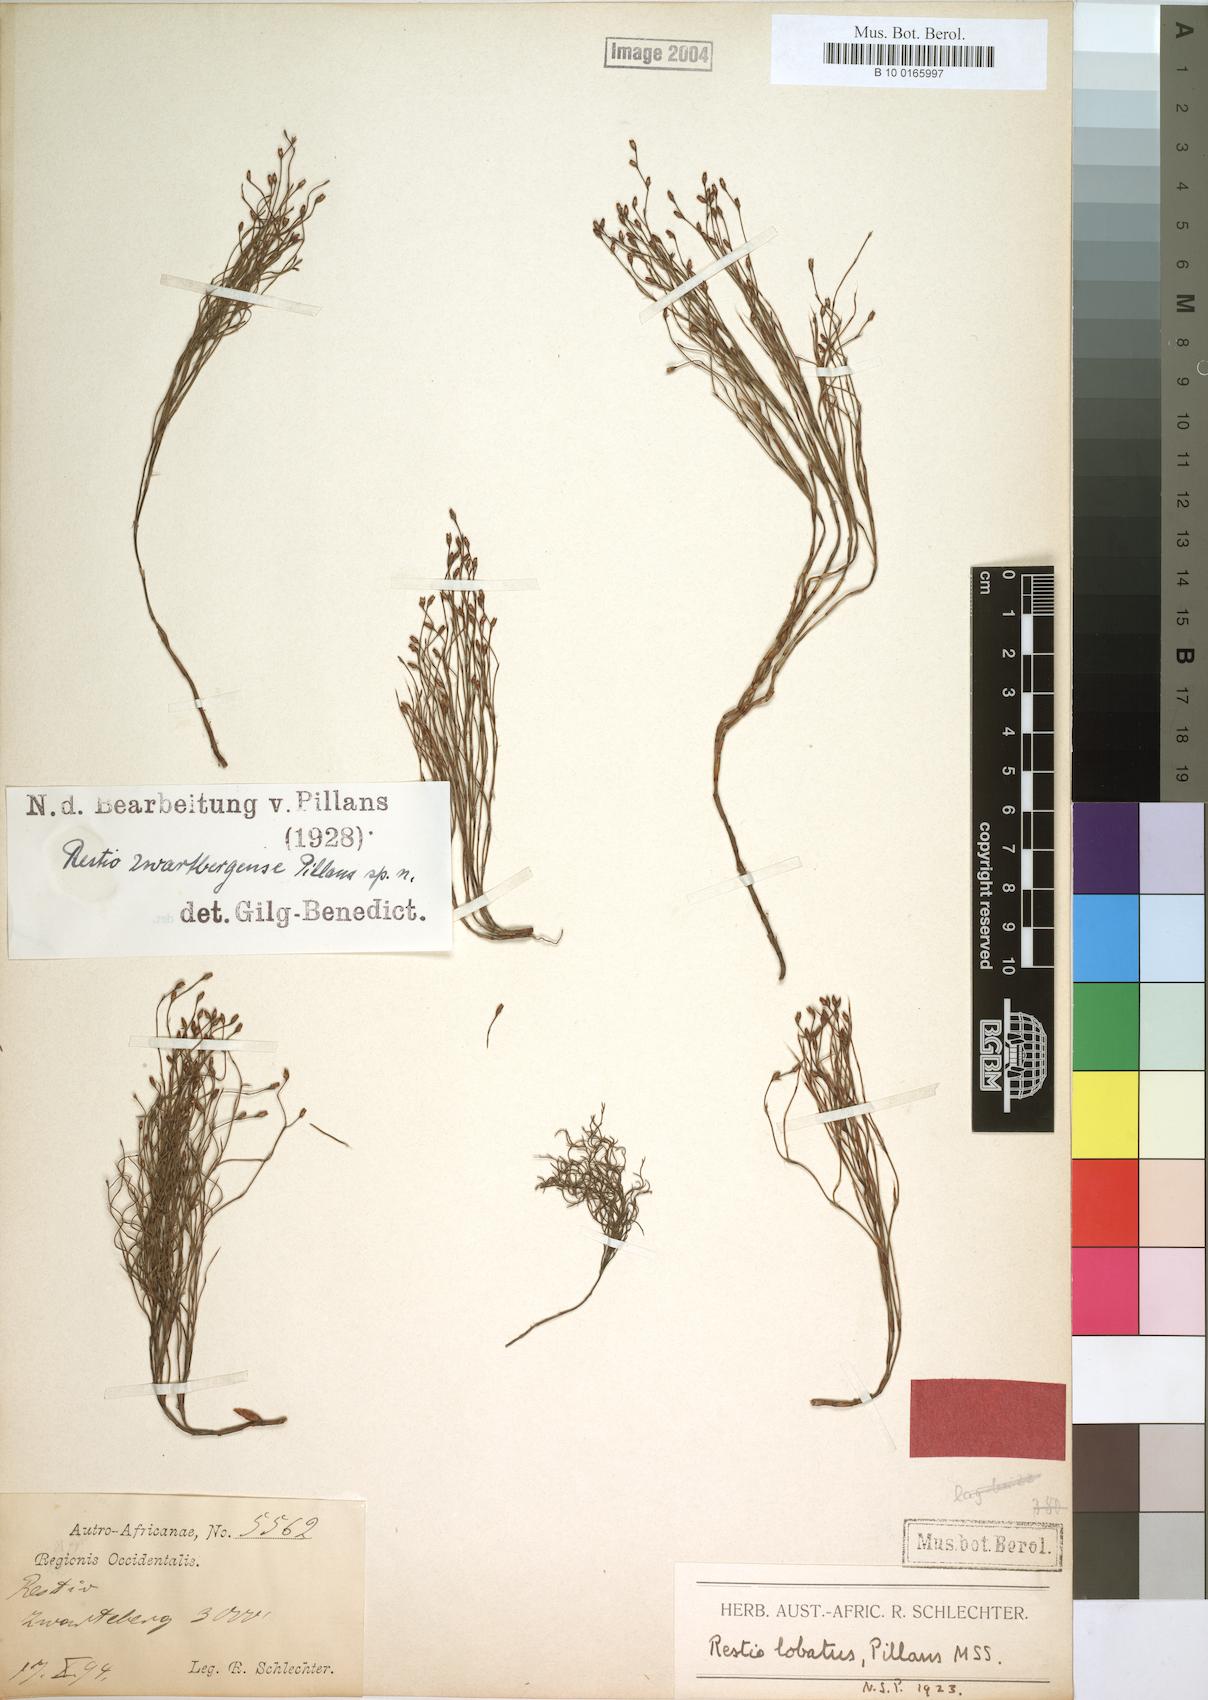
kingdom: Plantae
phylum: Tracheophyta
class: Liliopsida
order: Poales
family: Restionaceae
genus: Restio
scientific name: Restio zwartbergensis
